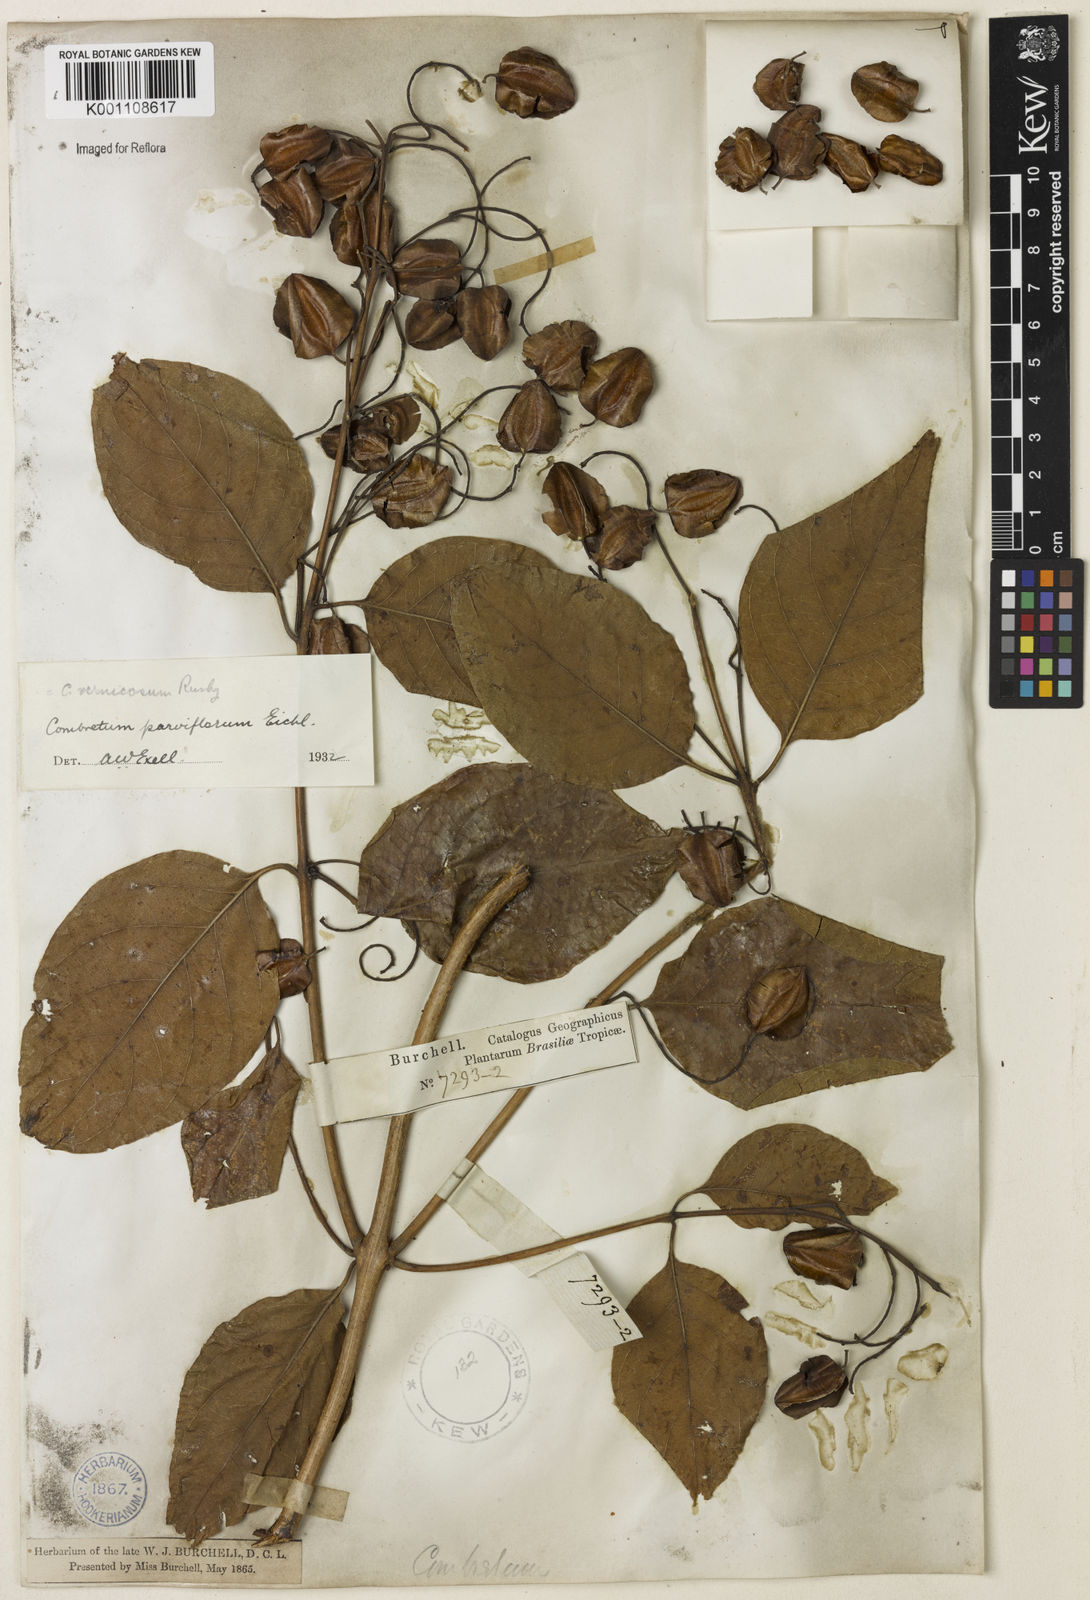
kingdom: Plantae
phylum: Tracheophyta
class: Magnoliopsida
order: Myrtales
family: Combretaceae
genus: Combretum
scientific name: Combretum vernicosum
